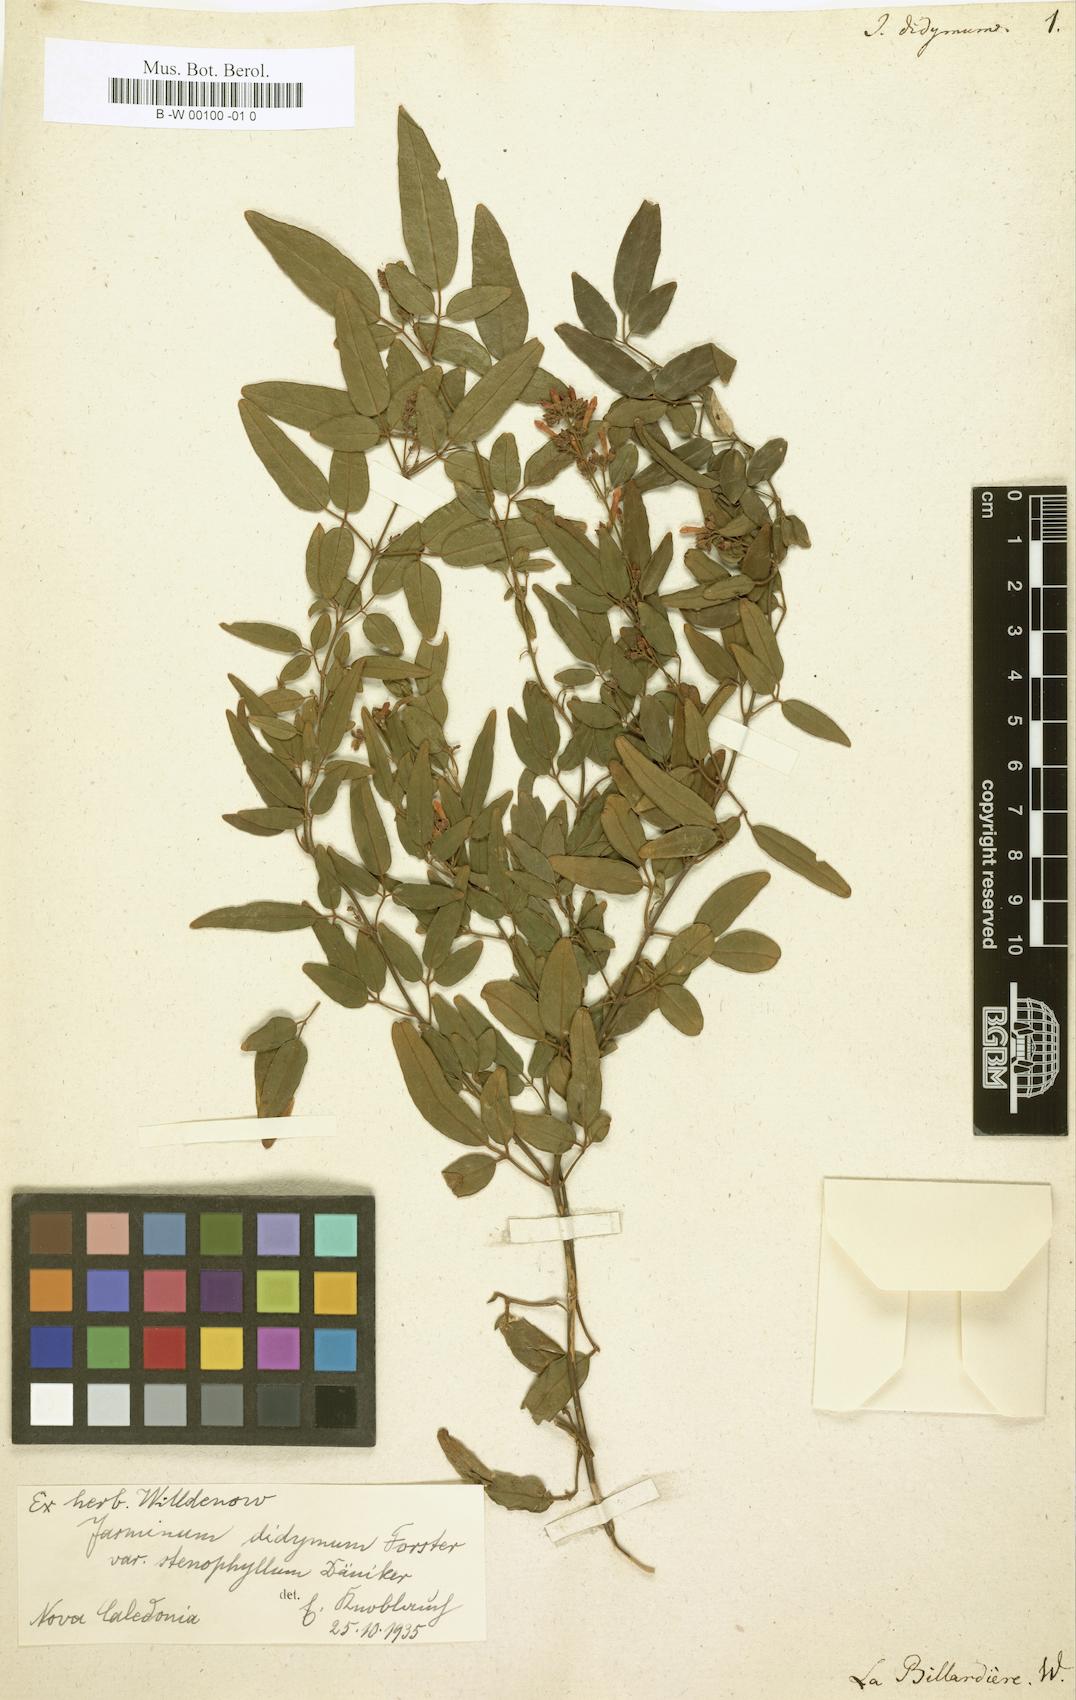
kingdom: Plantae
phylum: Tracheophyta
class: Magnoliopsida
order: Lamiales
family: Oleaceae
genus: Jasminum
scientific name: Jasminum didymum
